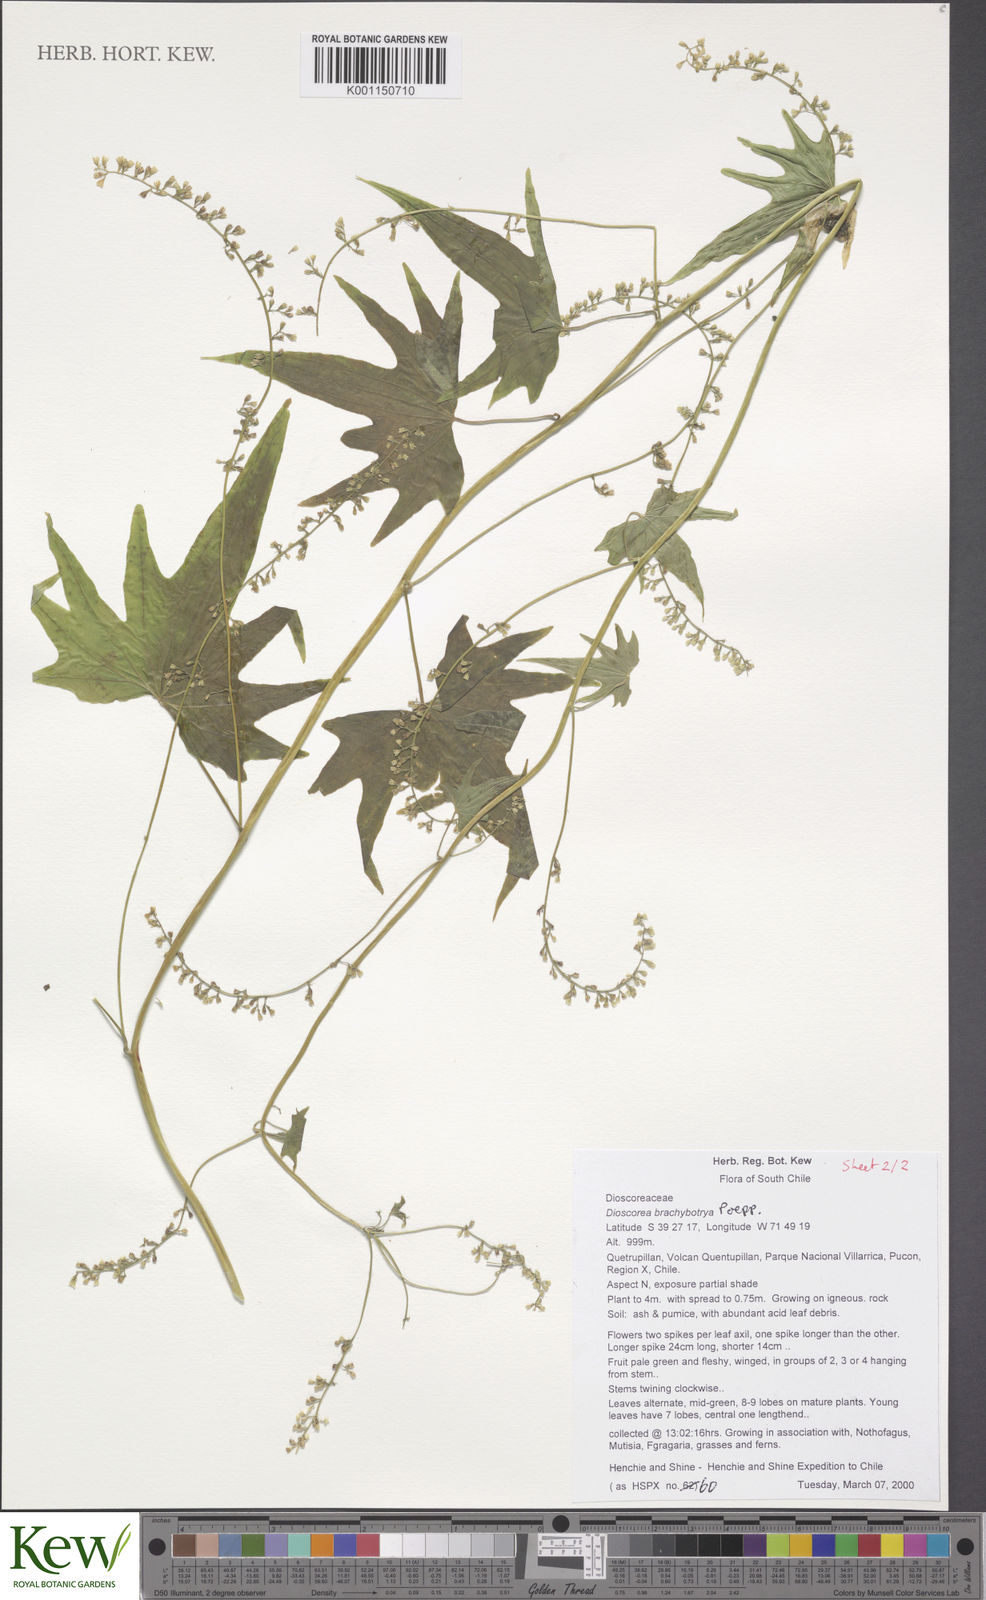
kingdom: Plantae
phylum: Tracheophyta
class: Liliopsida
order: Dioscoreales
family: Dioscoreaceae
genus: Dioscorea
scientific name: Dioscorea brachybotrya
